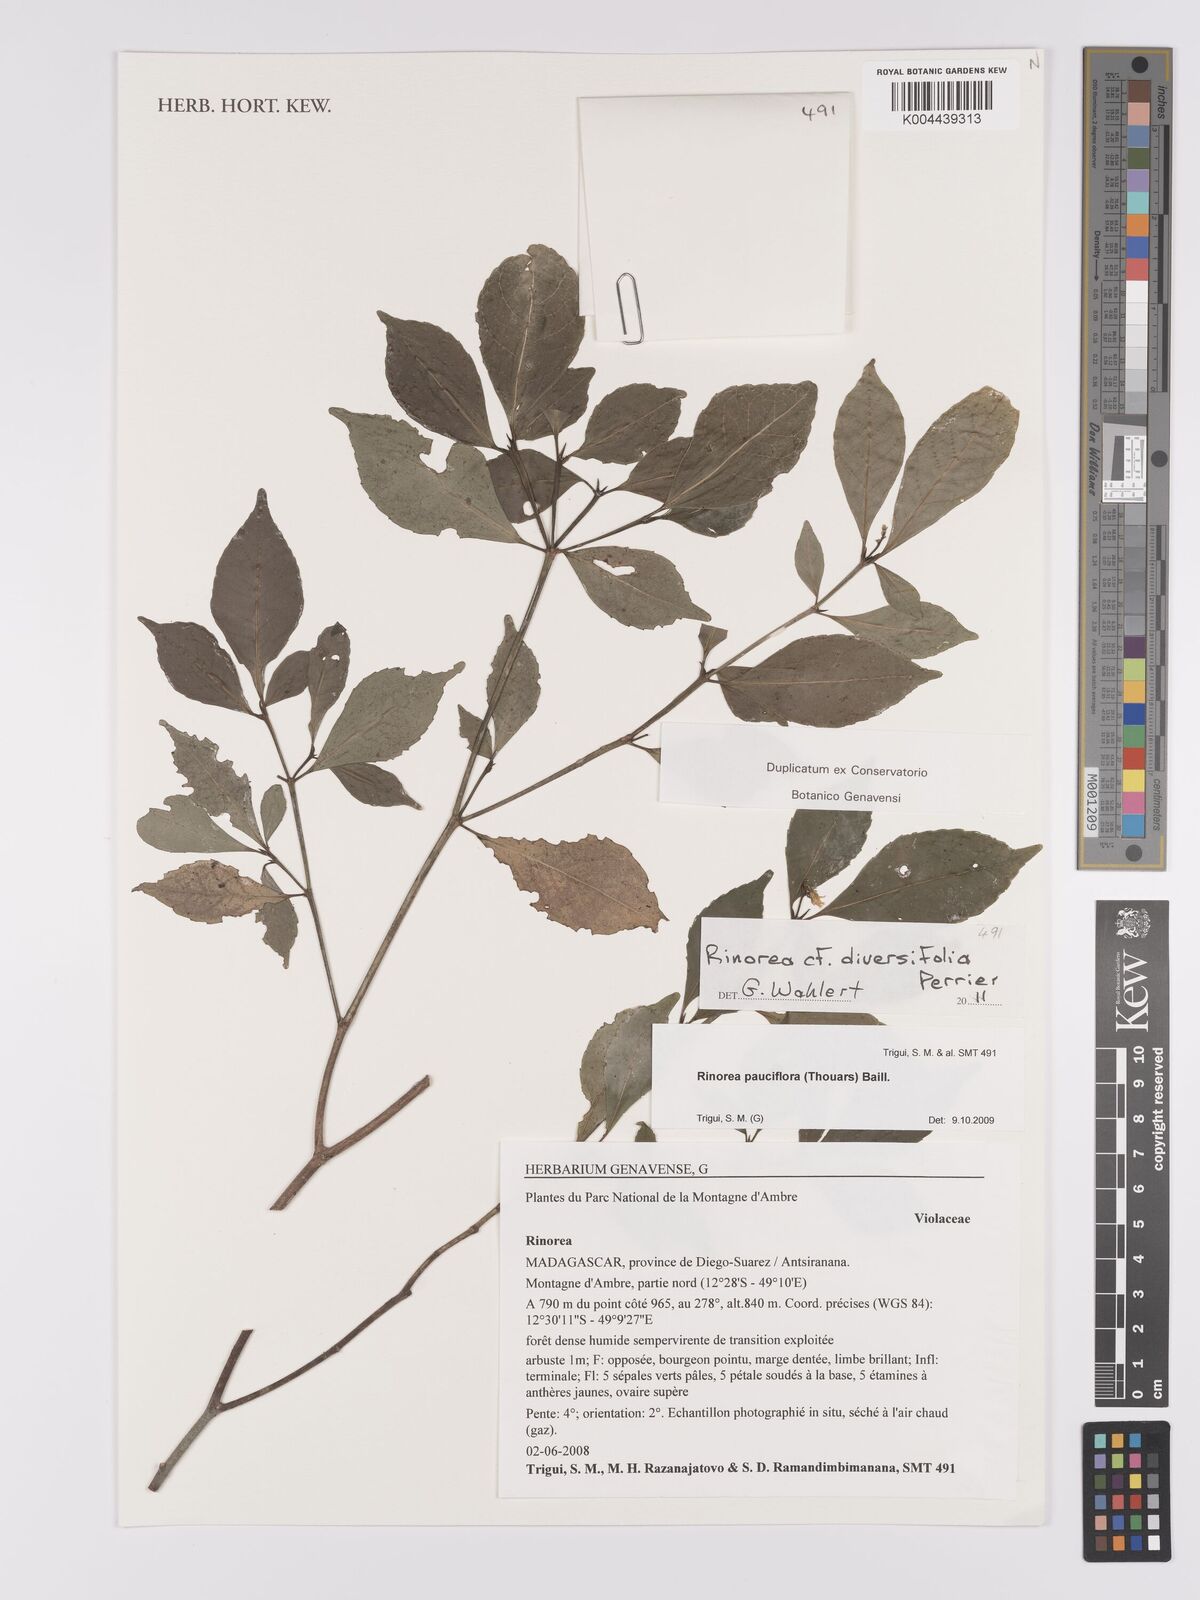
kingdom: Plantae
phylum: Tracheophyta
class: Magnoliopsida
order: Malpighiales
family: Violaceae
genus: Rinorea
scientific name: Rinorea diversifolia
